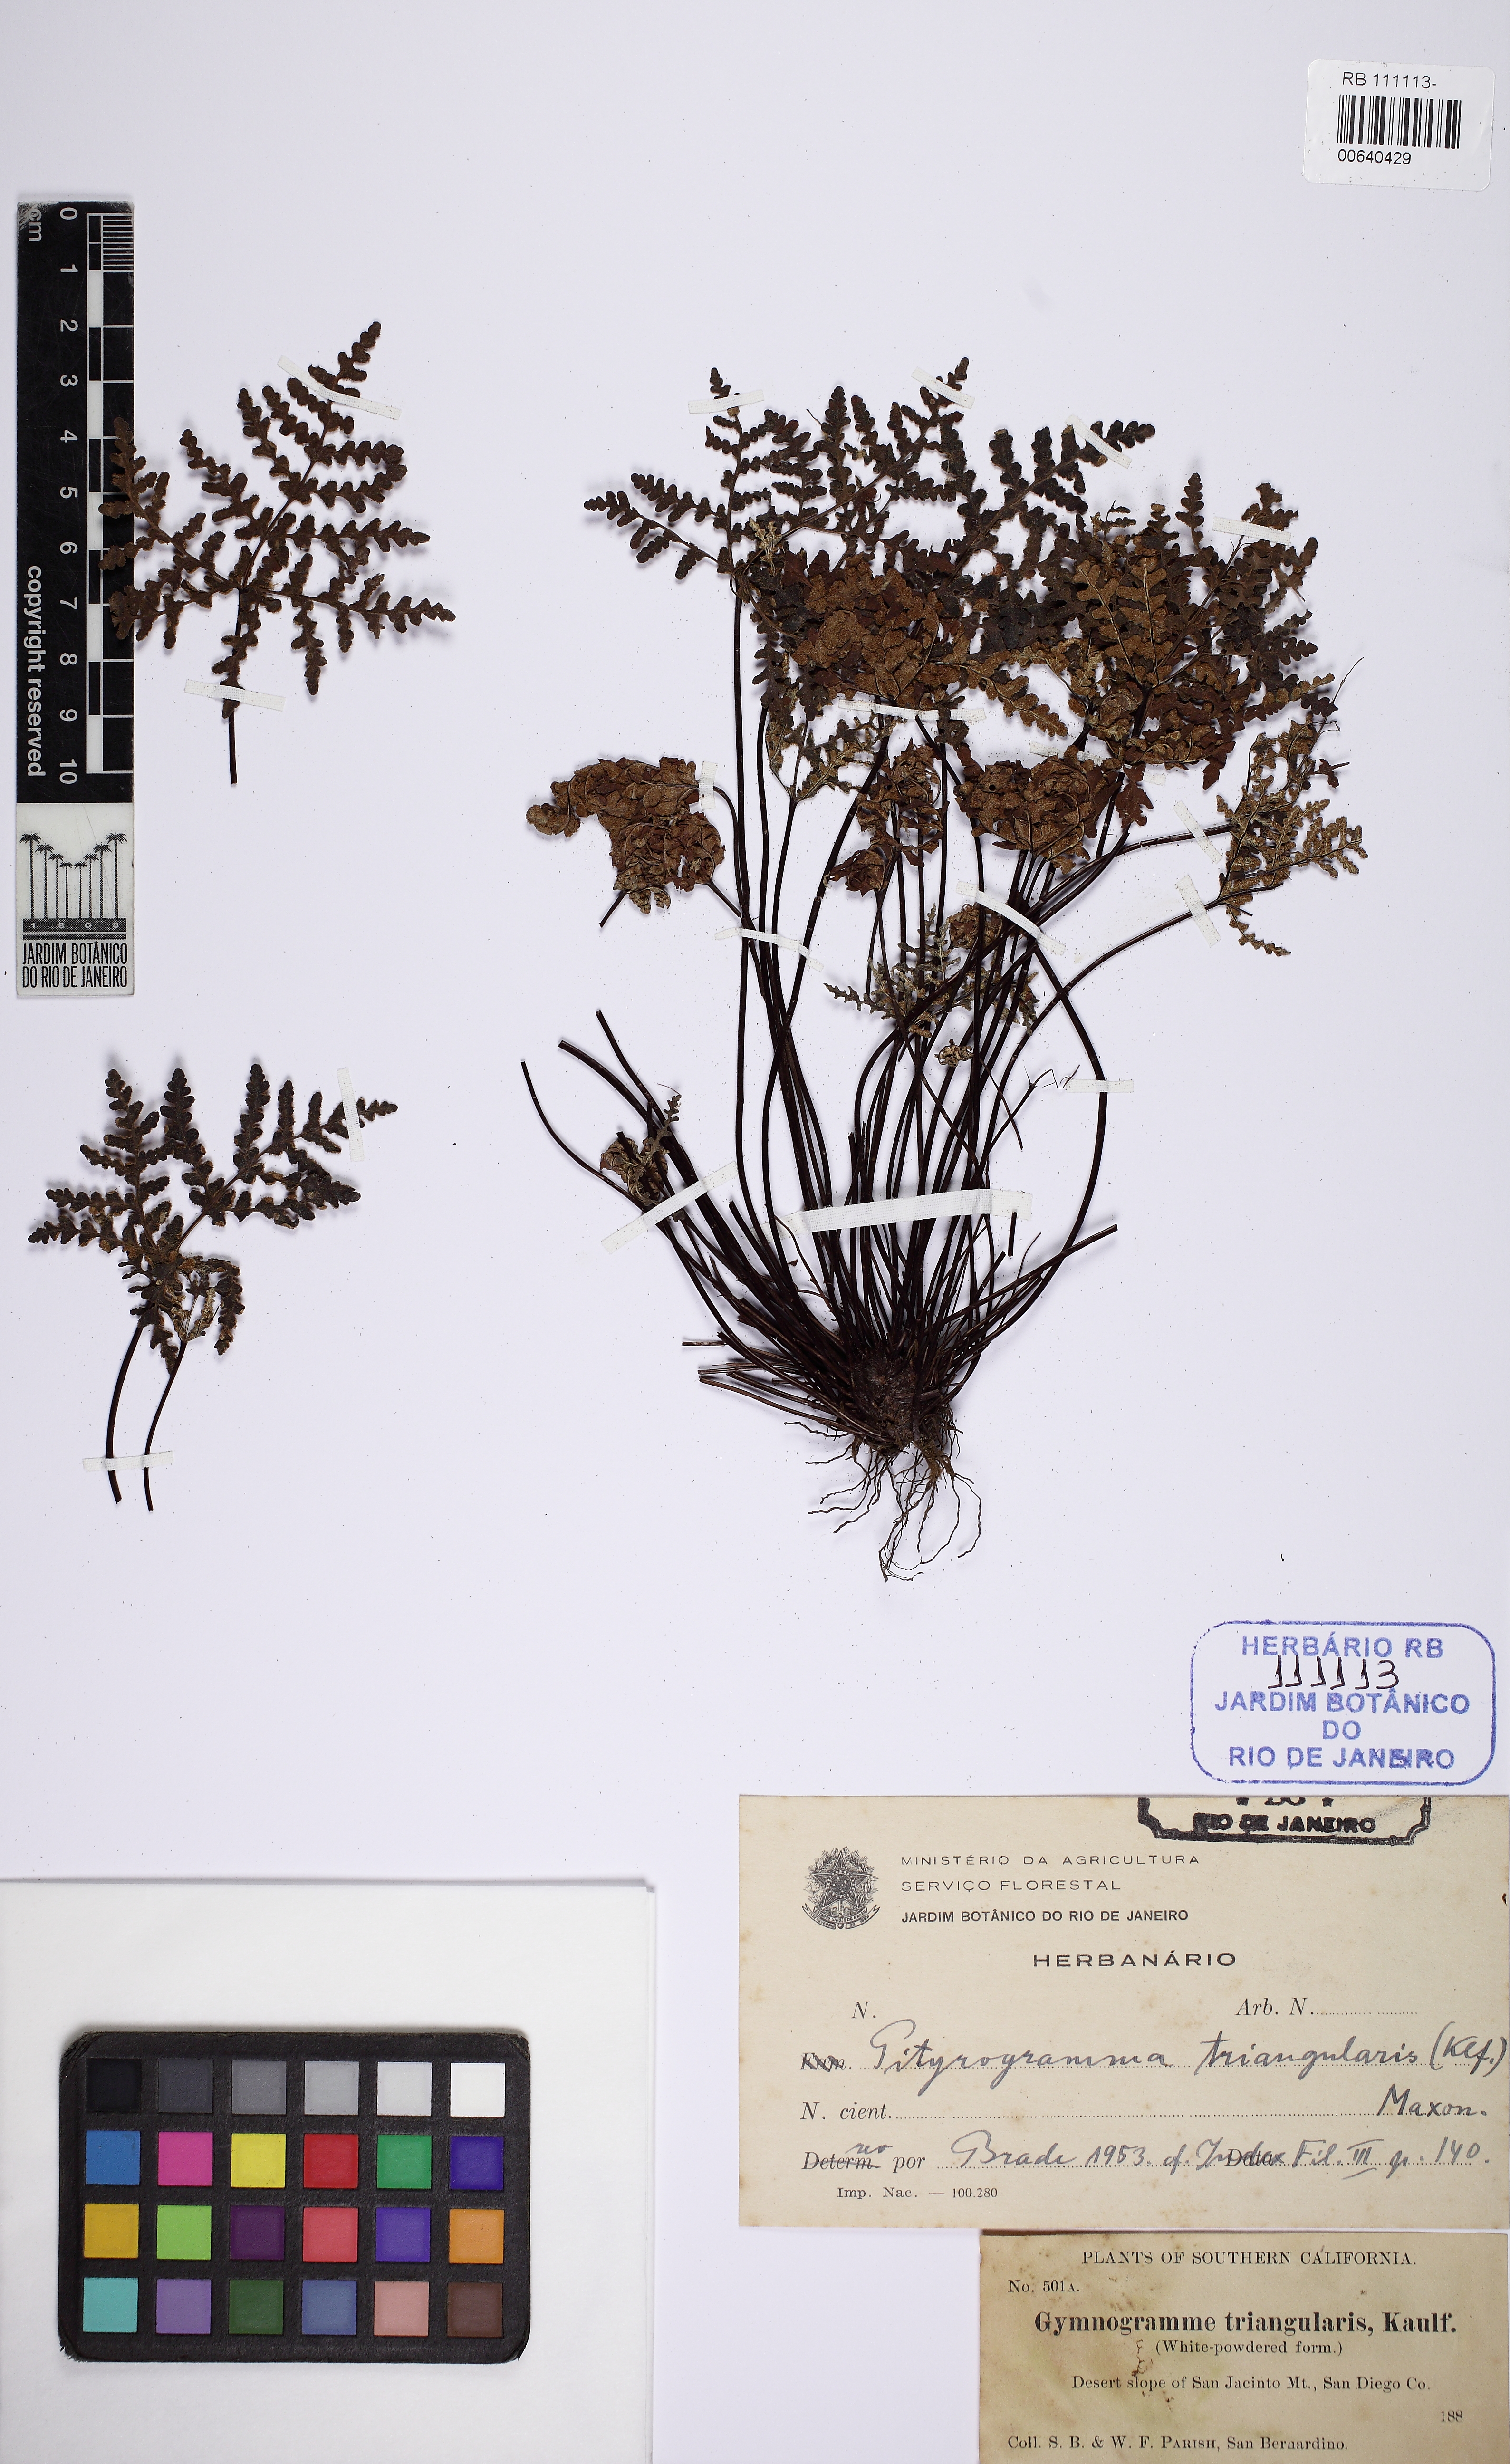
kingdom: Plantae
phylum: Tracheophyta
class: Polypodiopsida
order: Polypodiales
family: Pteridaceae
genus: Pentagramma
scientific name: Pentagramma triangularis
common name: Gold fern
